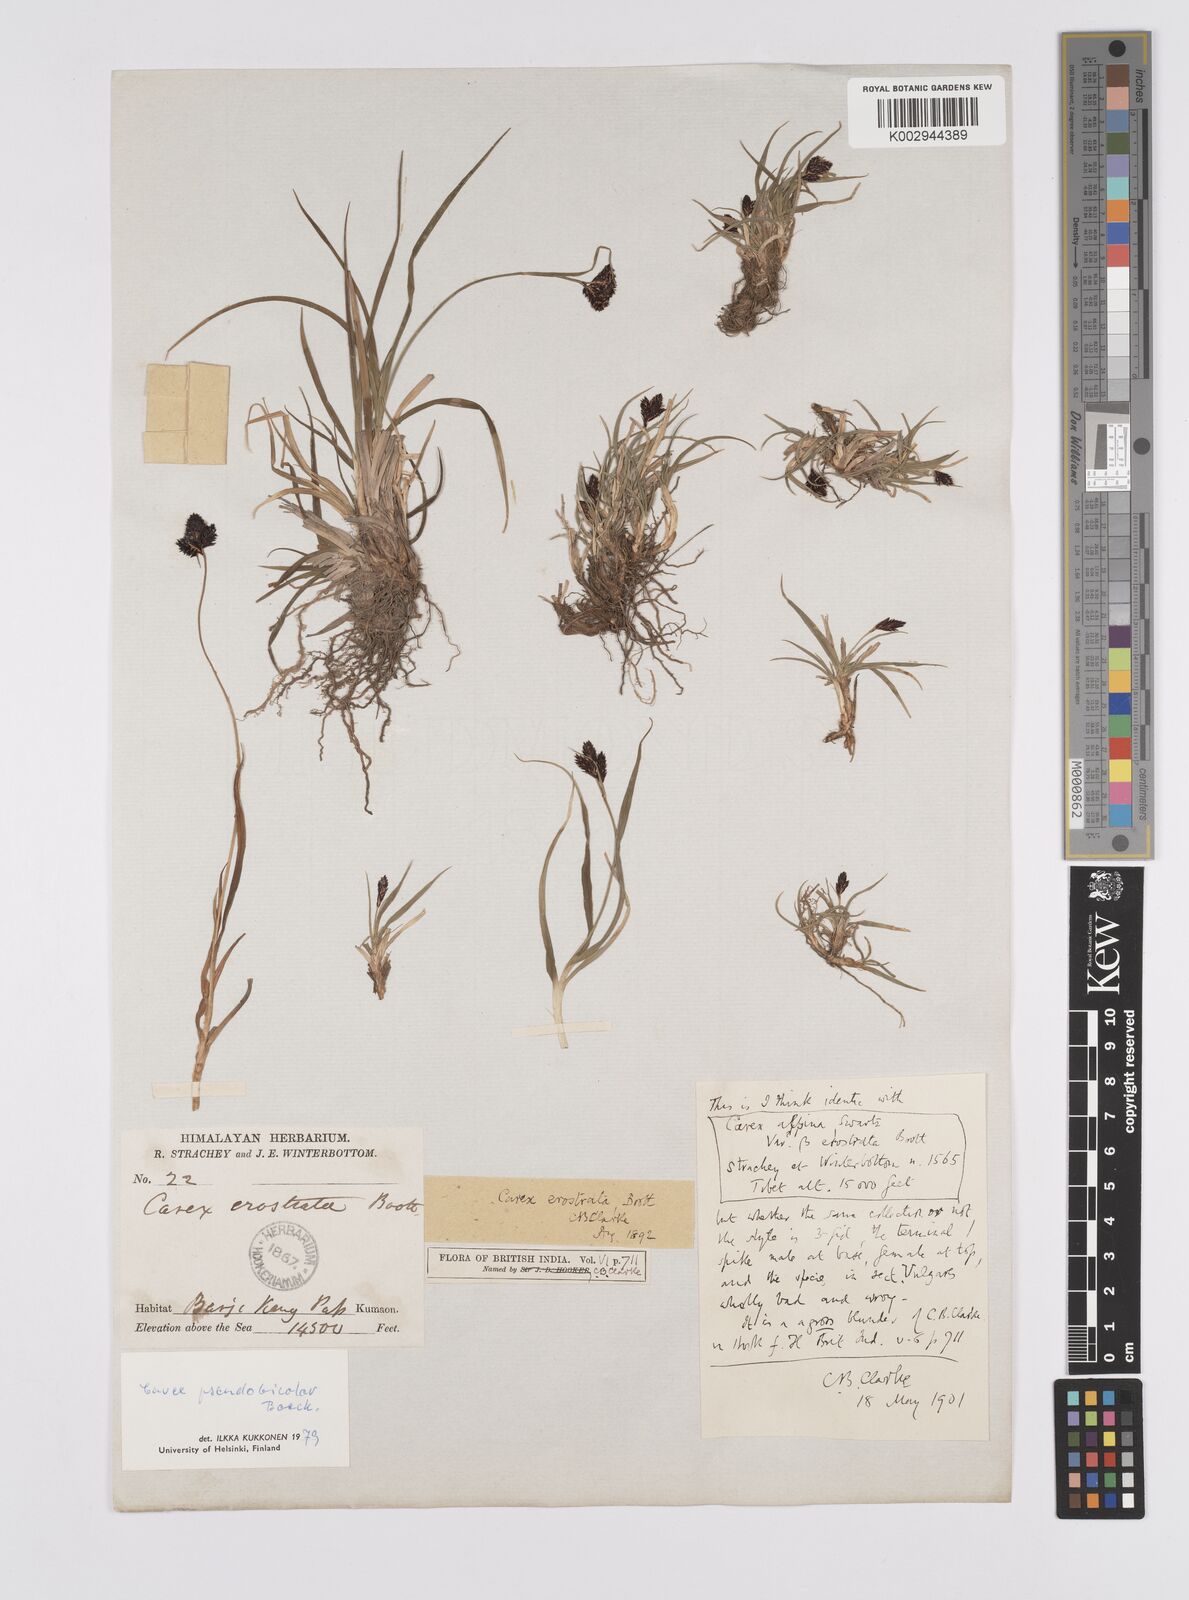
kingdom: Plantae
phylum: Tracheophyta
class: Liliopsida
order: Poales
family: Cyperaceae
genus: Carex
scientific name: Carex norvegica
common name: Close-headed alpine-sedge
